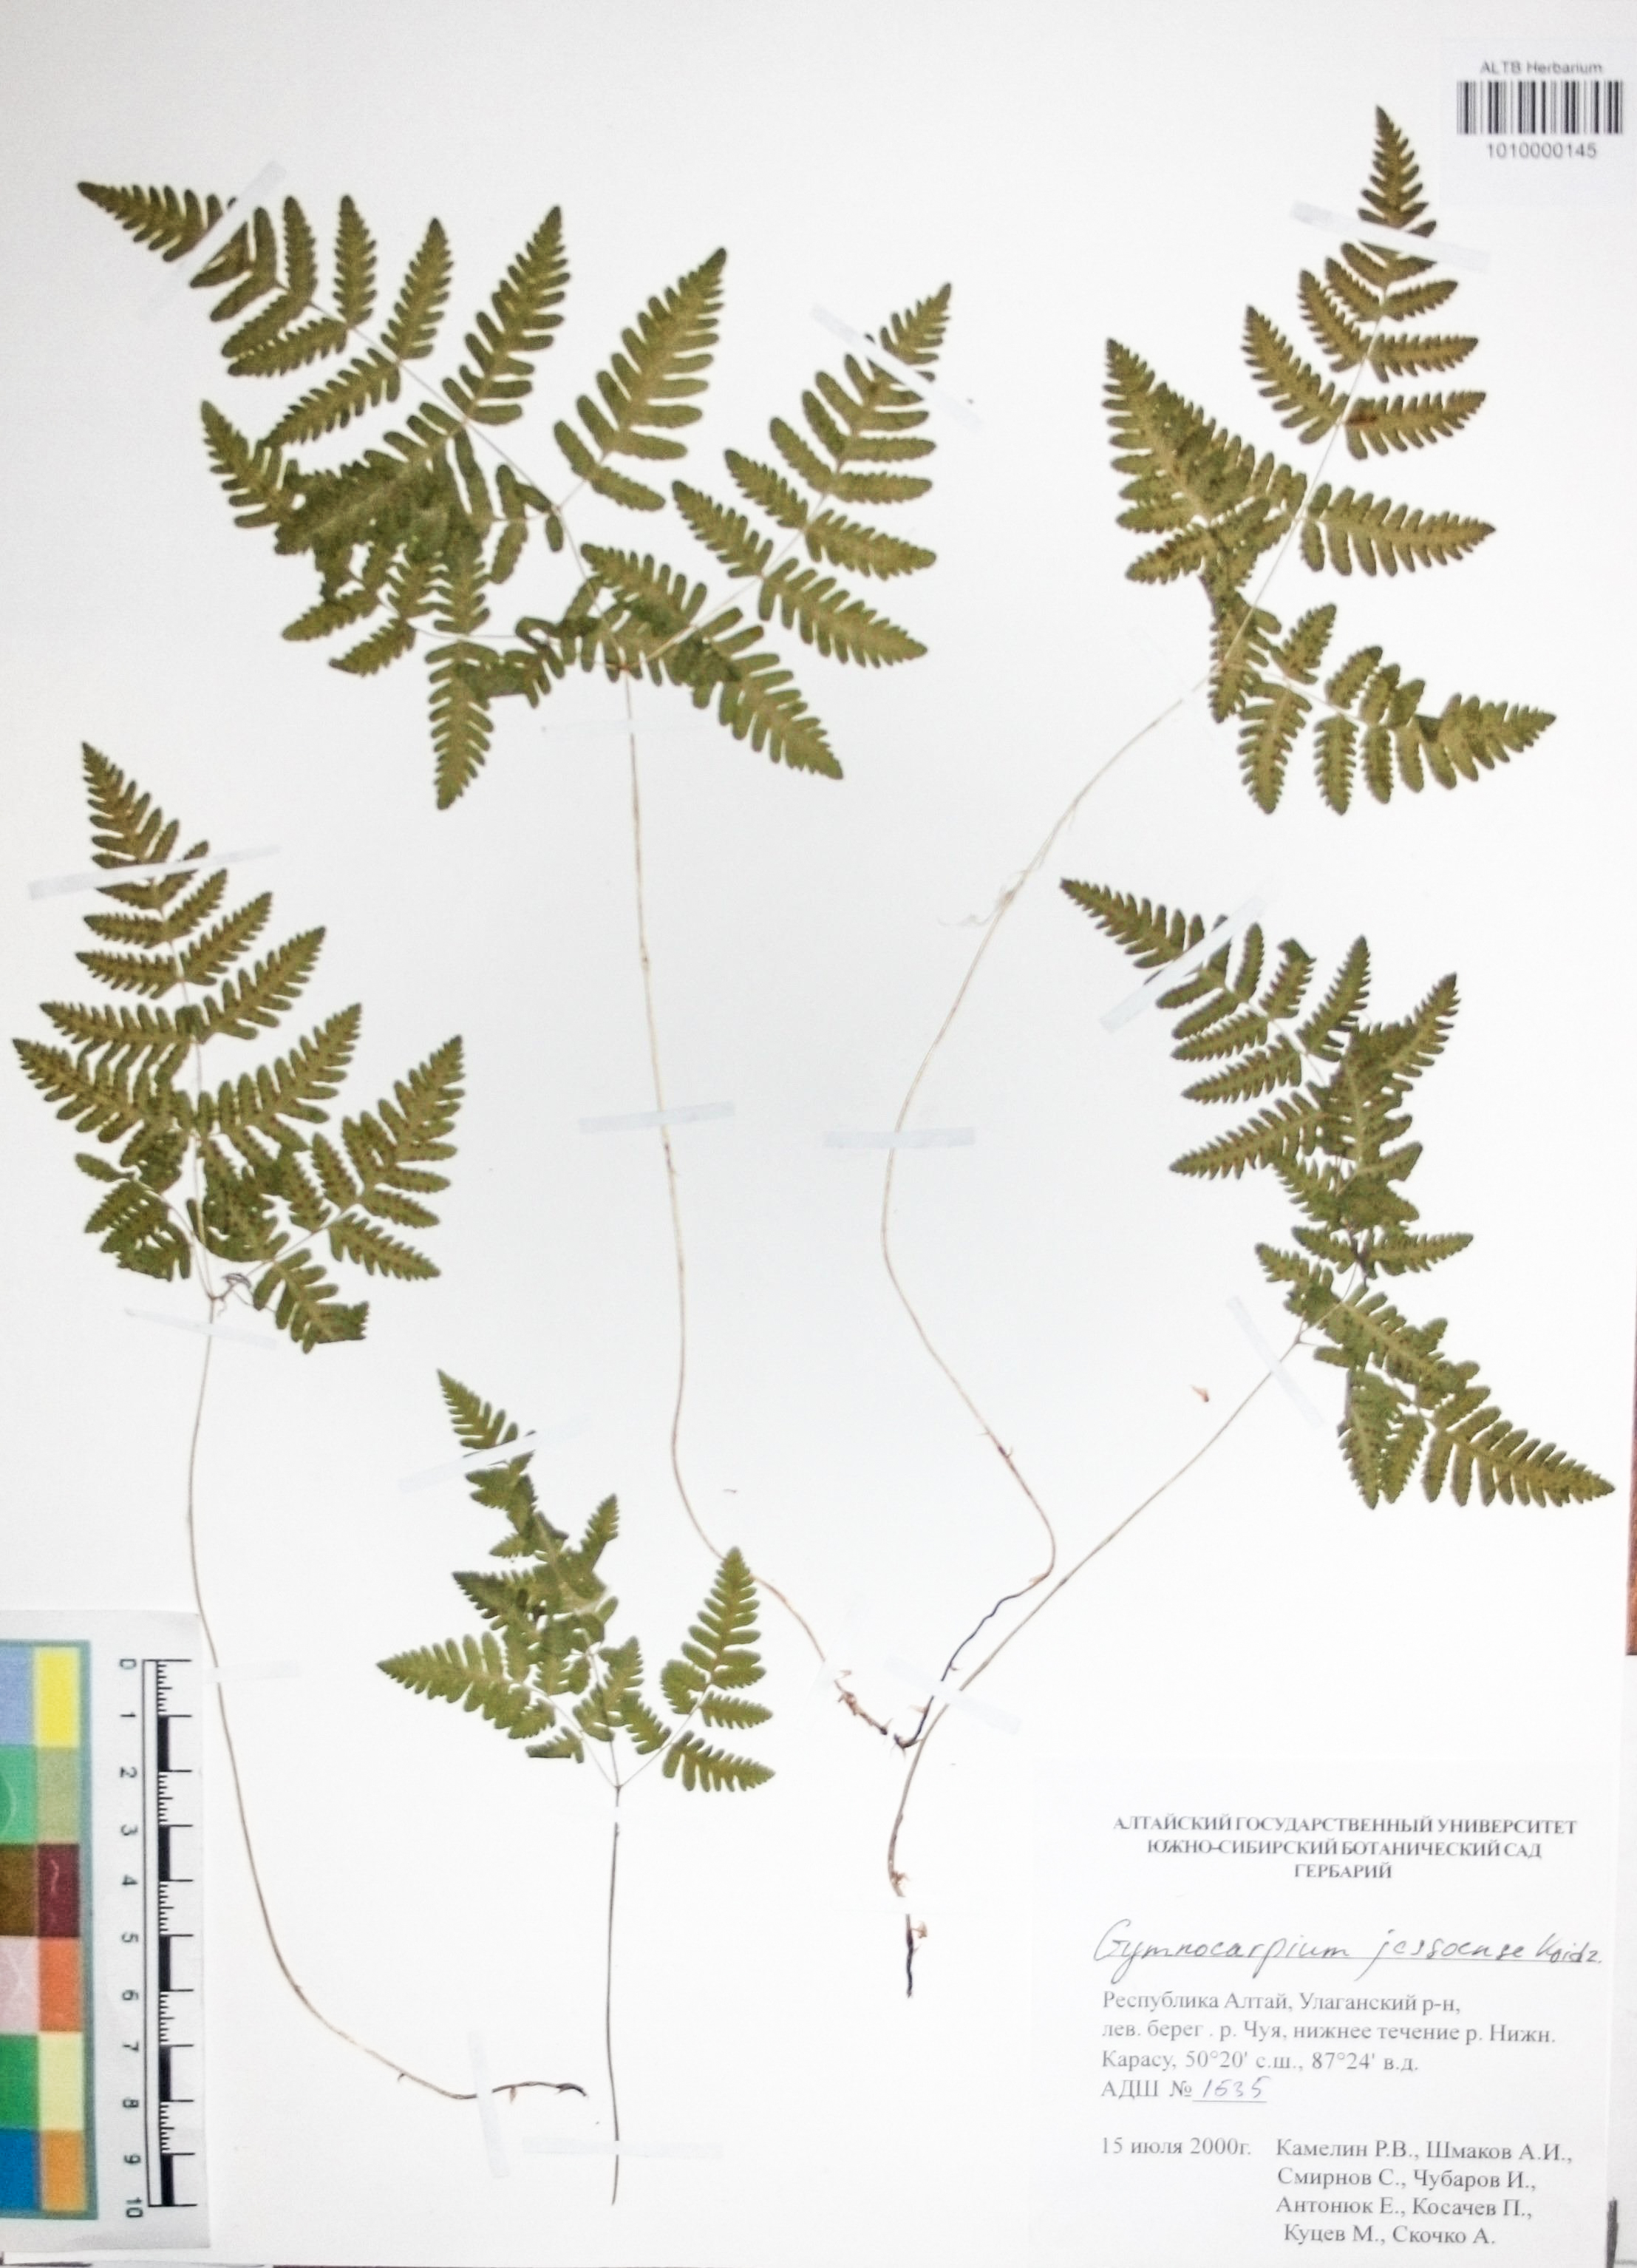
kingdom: Plantae
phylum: Tracheophyta
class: Polypodiopsida
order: Polypodiales
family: Cystopteridaceae
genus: Gymnocarpium
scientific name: Gymnocarpium jessoense
